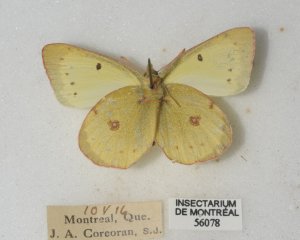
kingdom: Animalia
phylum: Arthropoda
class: Insecta
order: Lepidoptera
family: Pieridae
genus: Colias
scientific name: Colias philodice
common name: Clouded Sulphur
